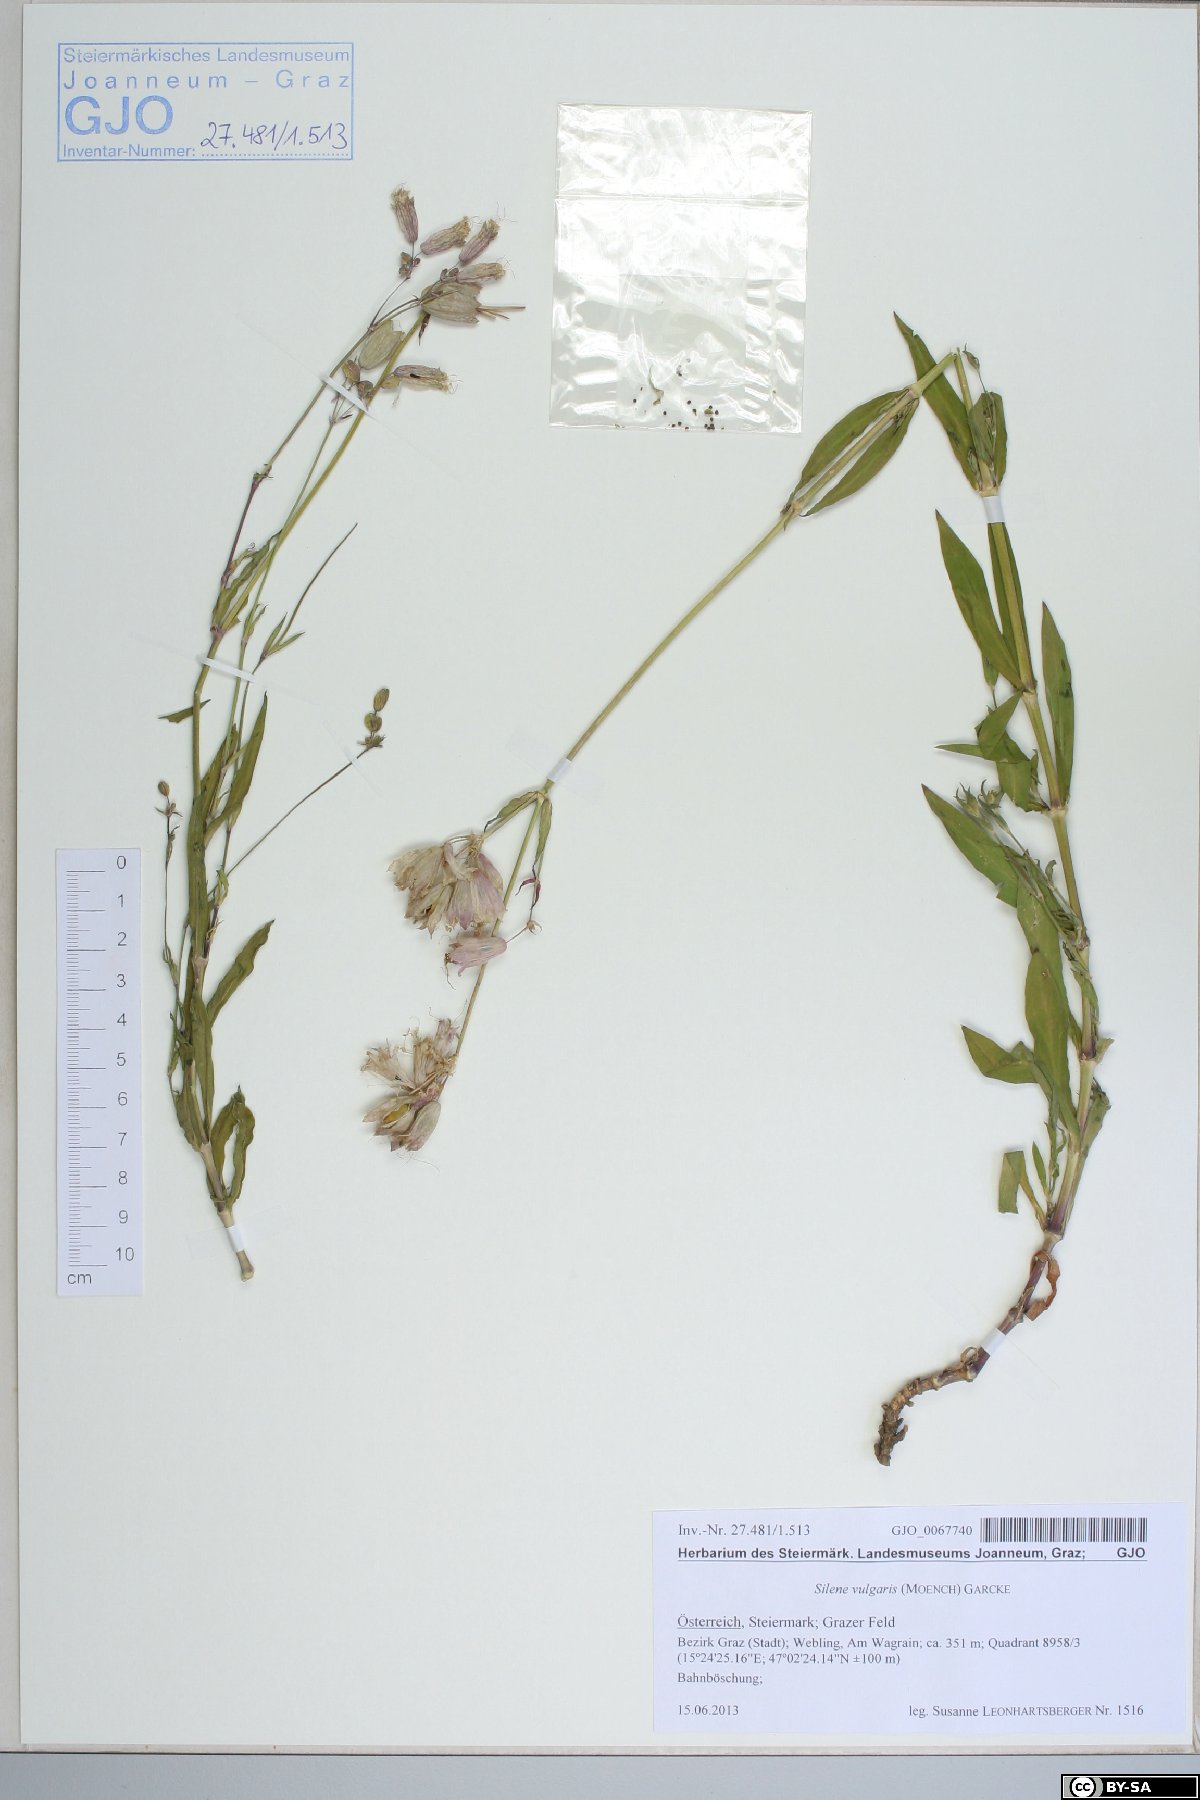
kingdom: Plantae
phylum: Tracheophyta
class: Magnoliopsida
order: Caryophyllales
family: Caryophyllaceae
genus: Silene
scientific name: Silene vulgaris
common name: Bladder campion
